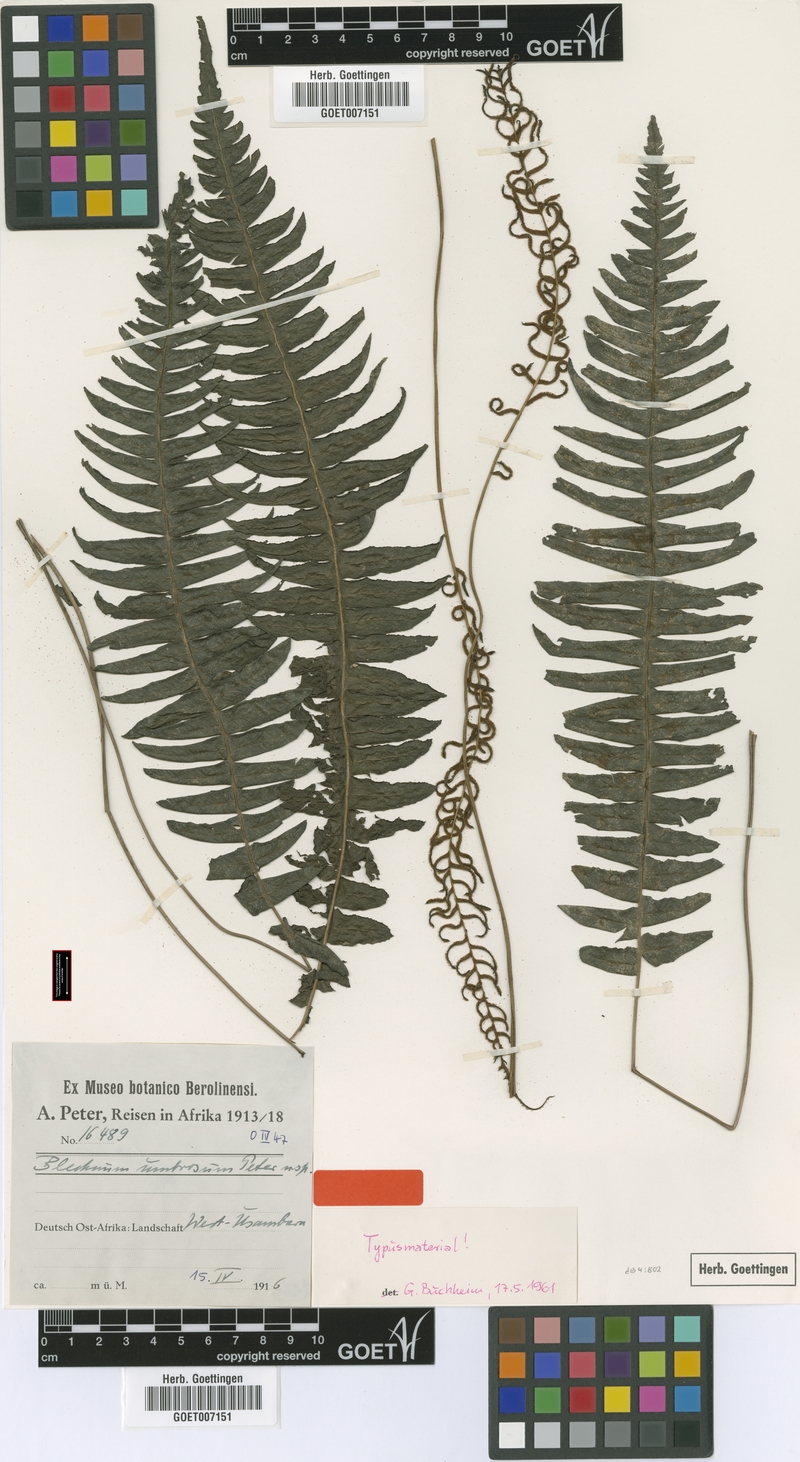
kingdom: Plantae
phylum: Tracheophyta
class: Polypodiopsida
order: Polypodiales
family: Blechnaceae
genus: Cranfillia
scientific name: Cranfillia bakeri
